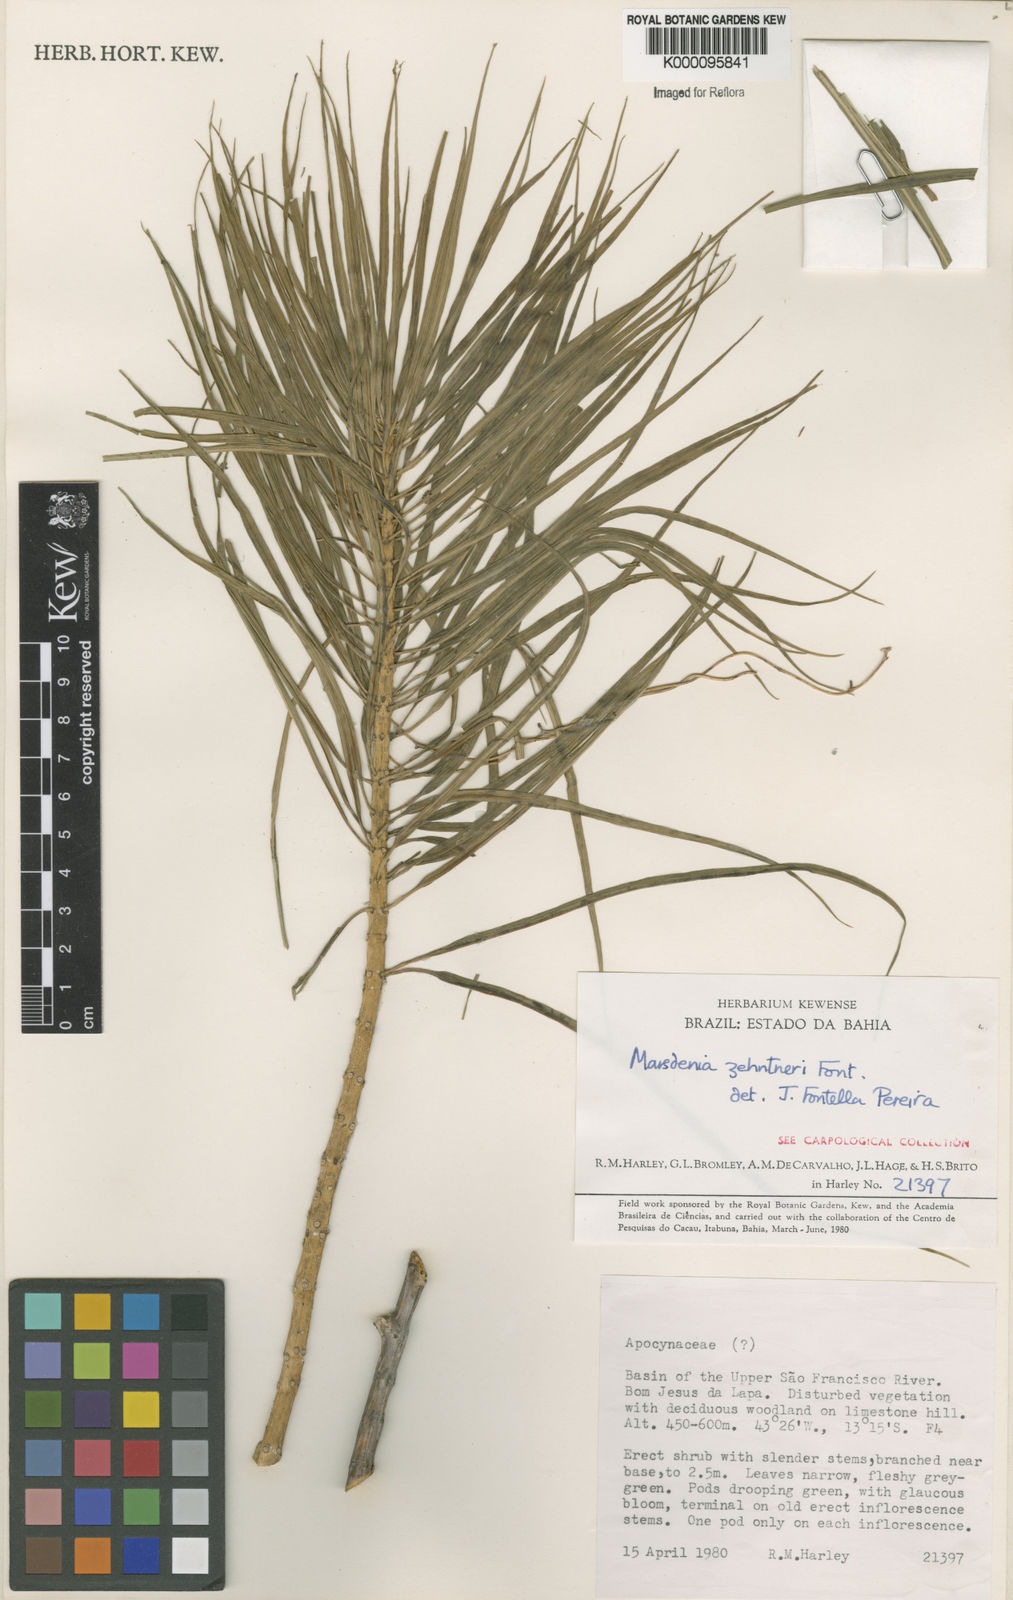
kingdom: Plantae
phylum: Tracheophyta
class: Magnoliopsida
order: Gentianales
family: Apocynaceae
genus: Ruehssia
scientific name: Ruehssia zehntneri
